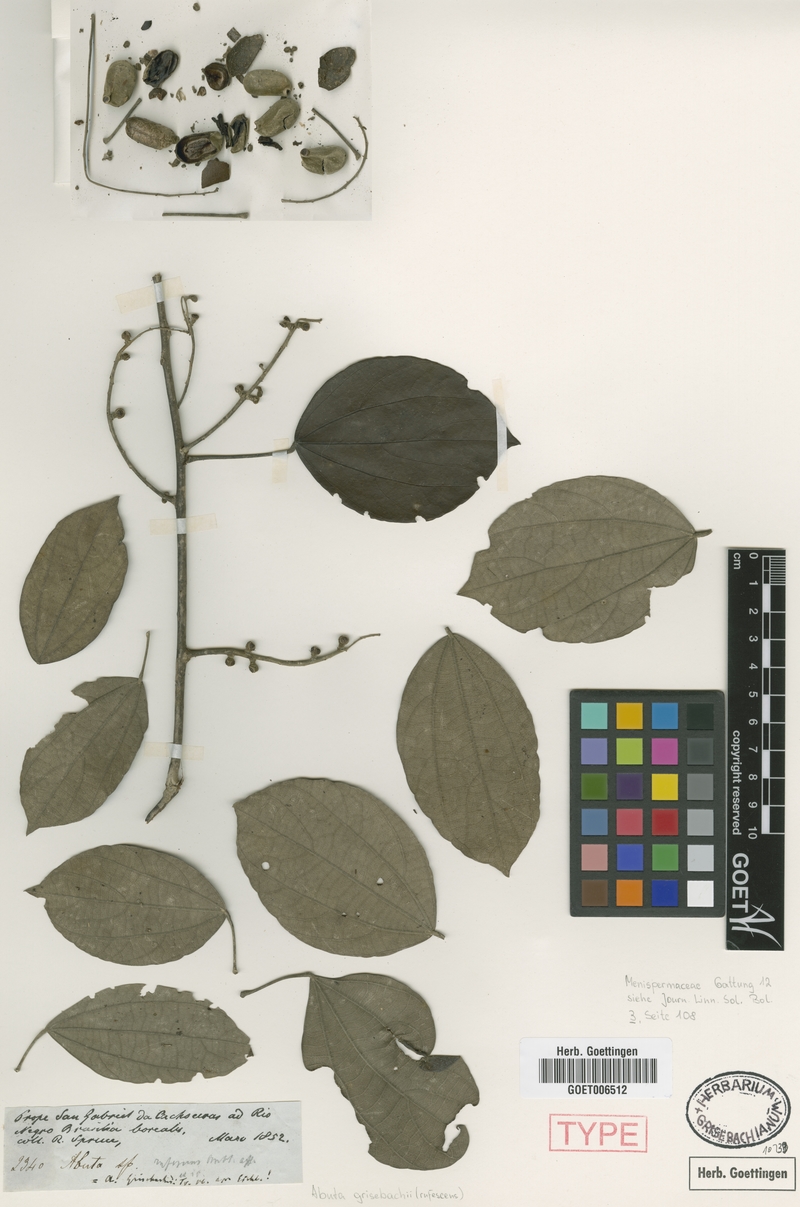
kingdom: Plantae
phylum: Tracheophyta
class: Magnoliopsida
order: Ranunculales
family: Menispermaceae
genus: Abuta
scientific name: Abuta grisebachii
